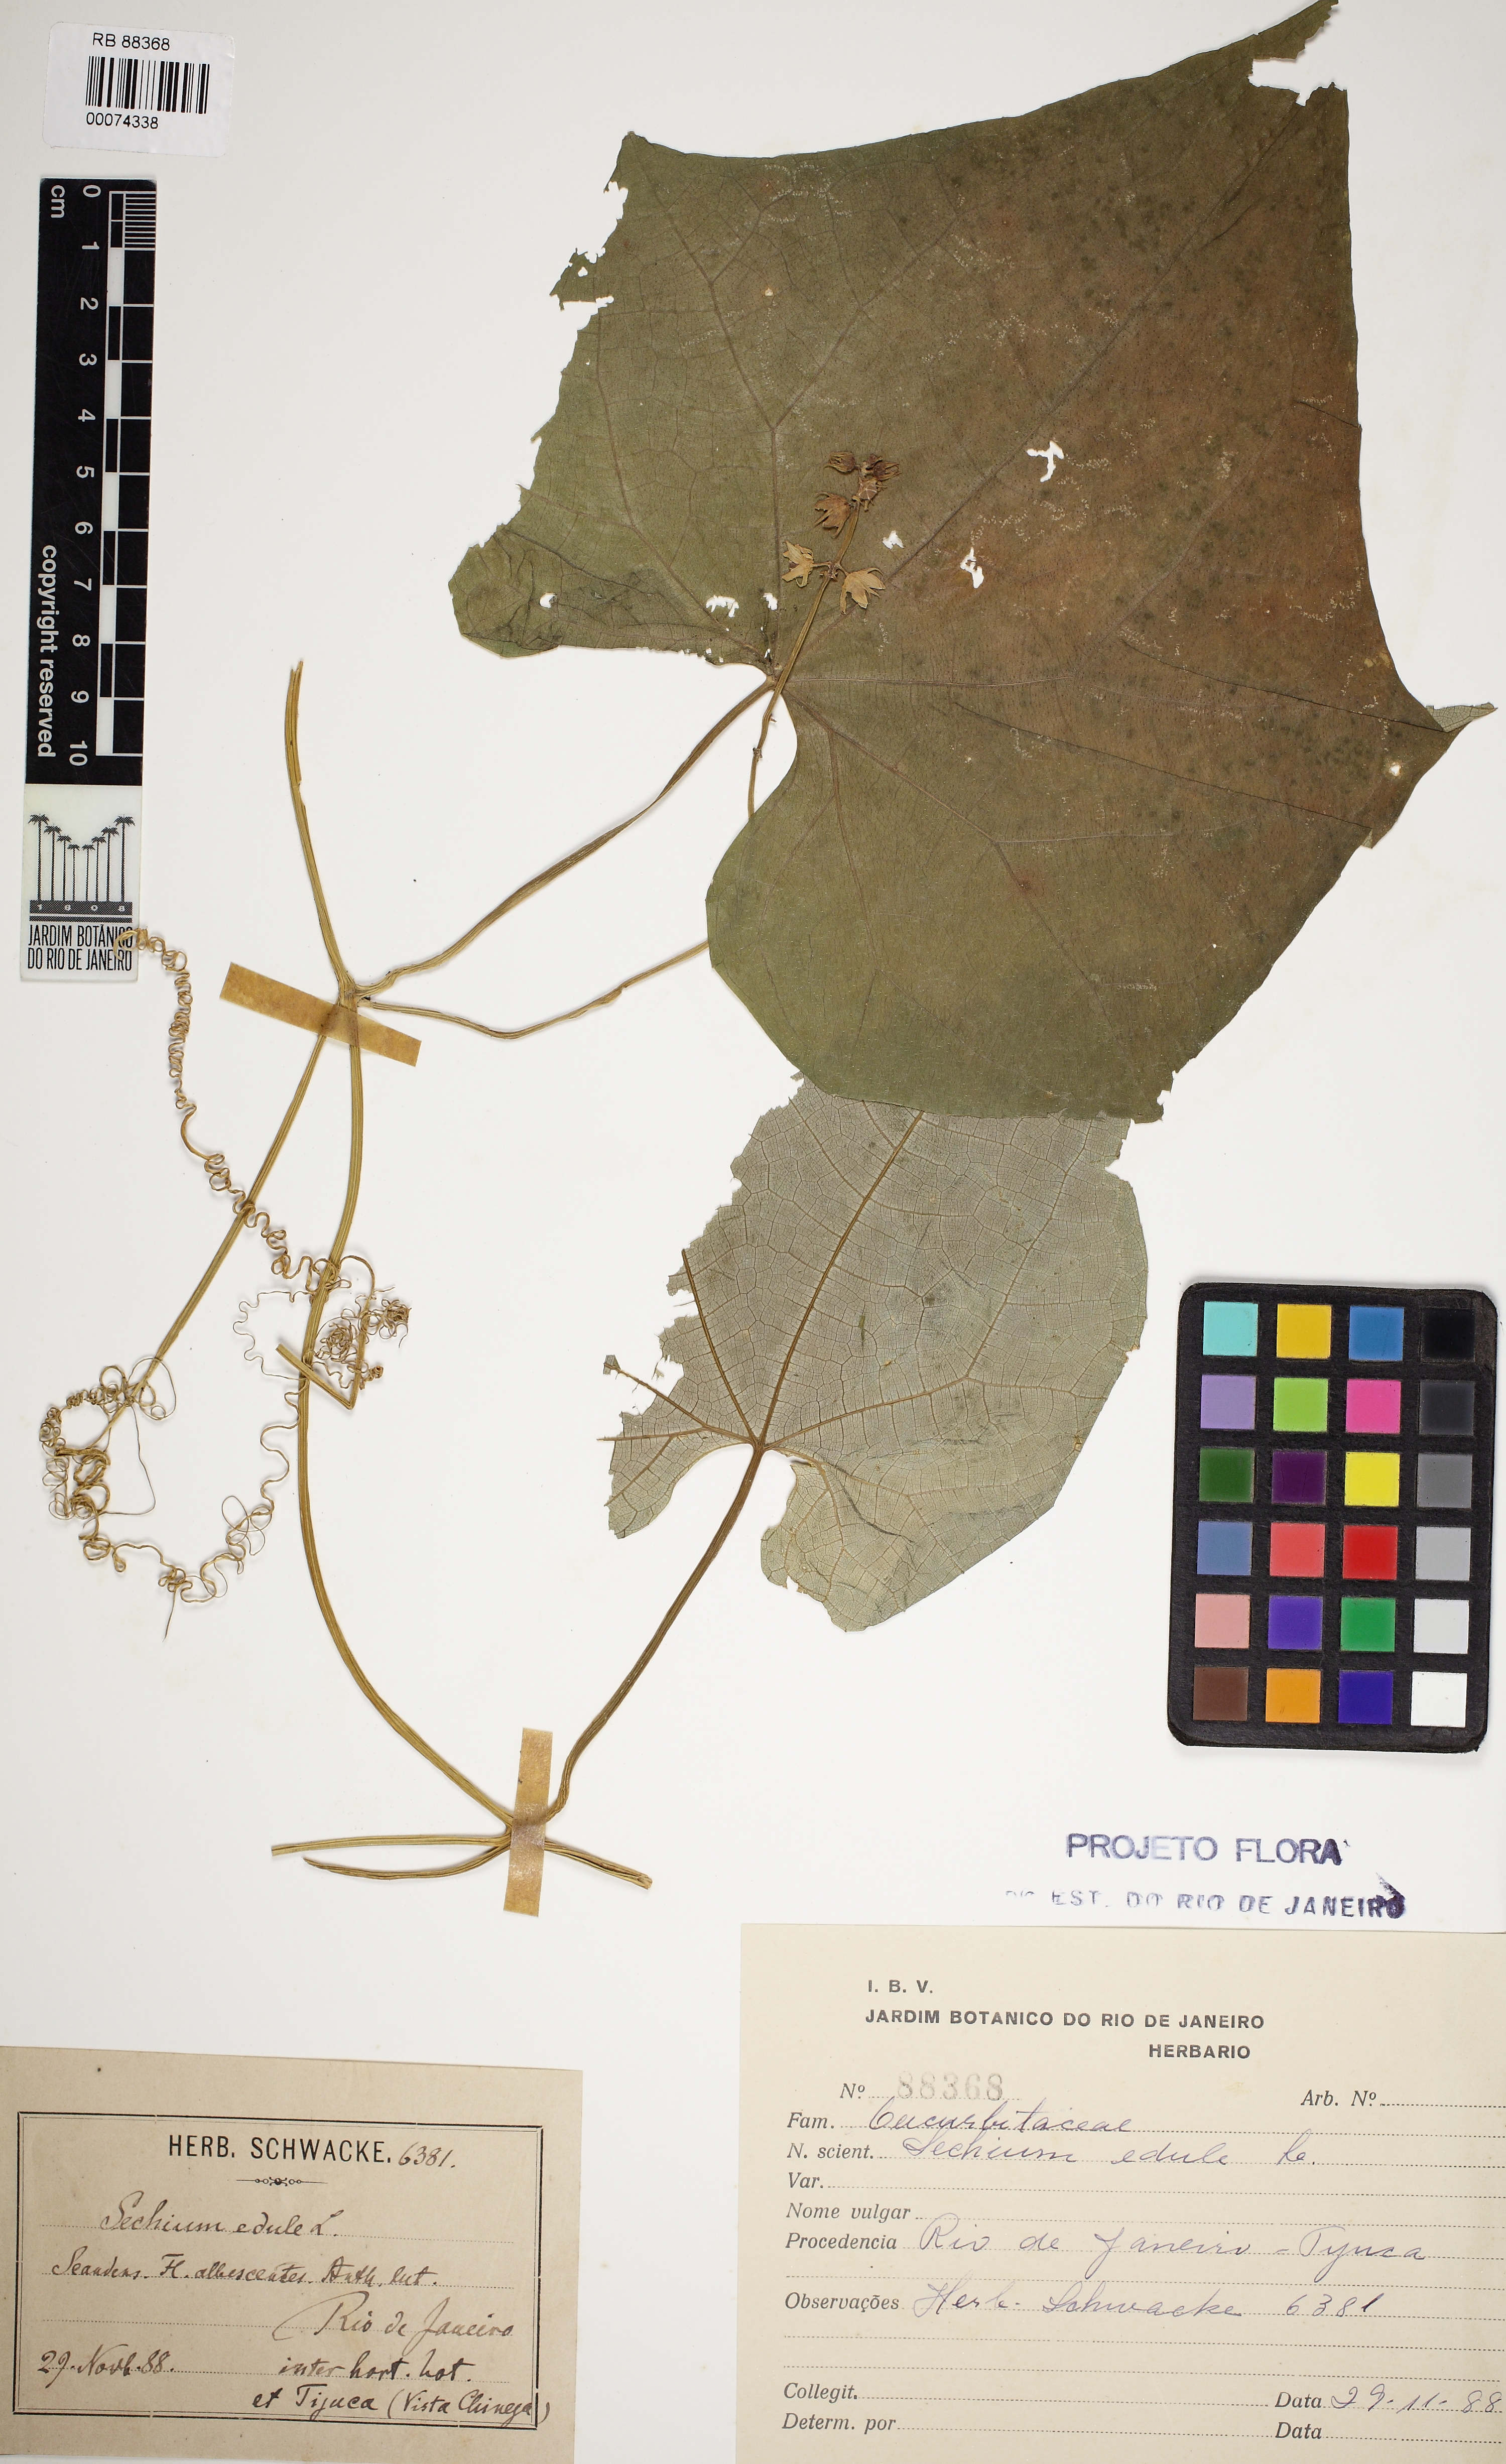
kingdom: Plantae
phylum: Tracheophyta
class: Magnoliopsida
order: Cucurbitales
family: Cucurbitaceae
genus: Sechium
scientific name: Sechium edule
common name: Chayote
